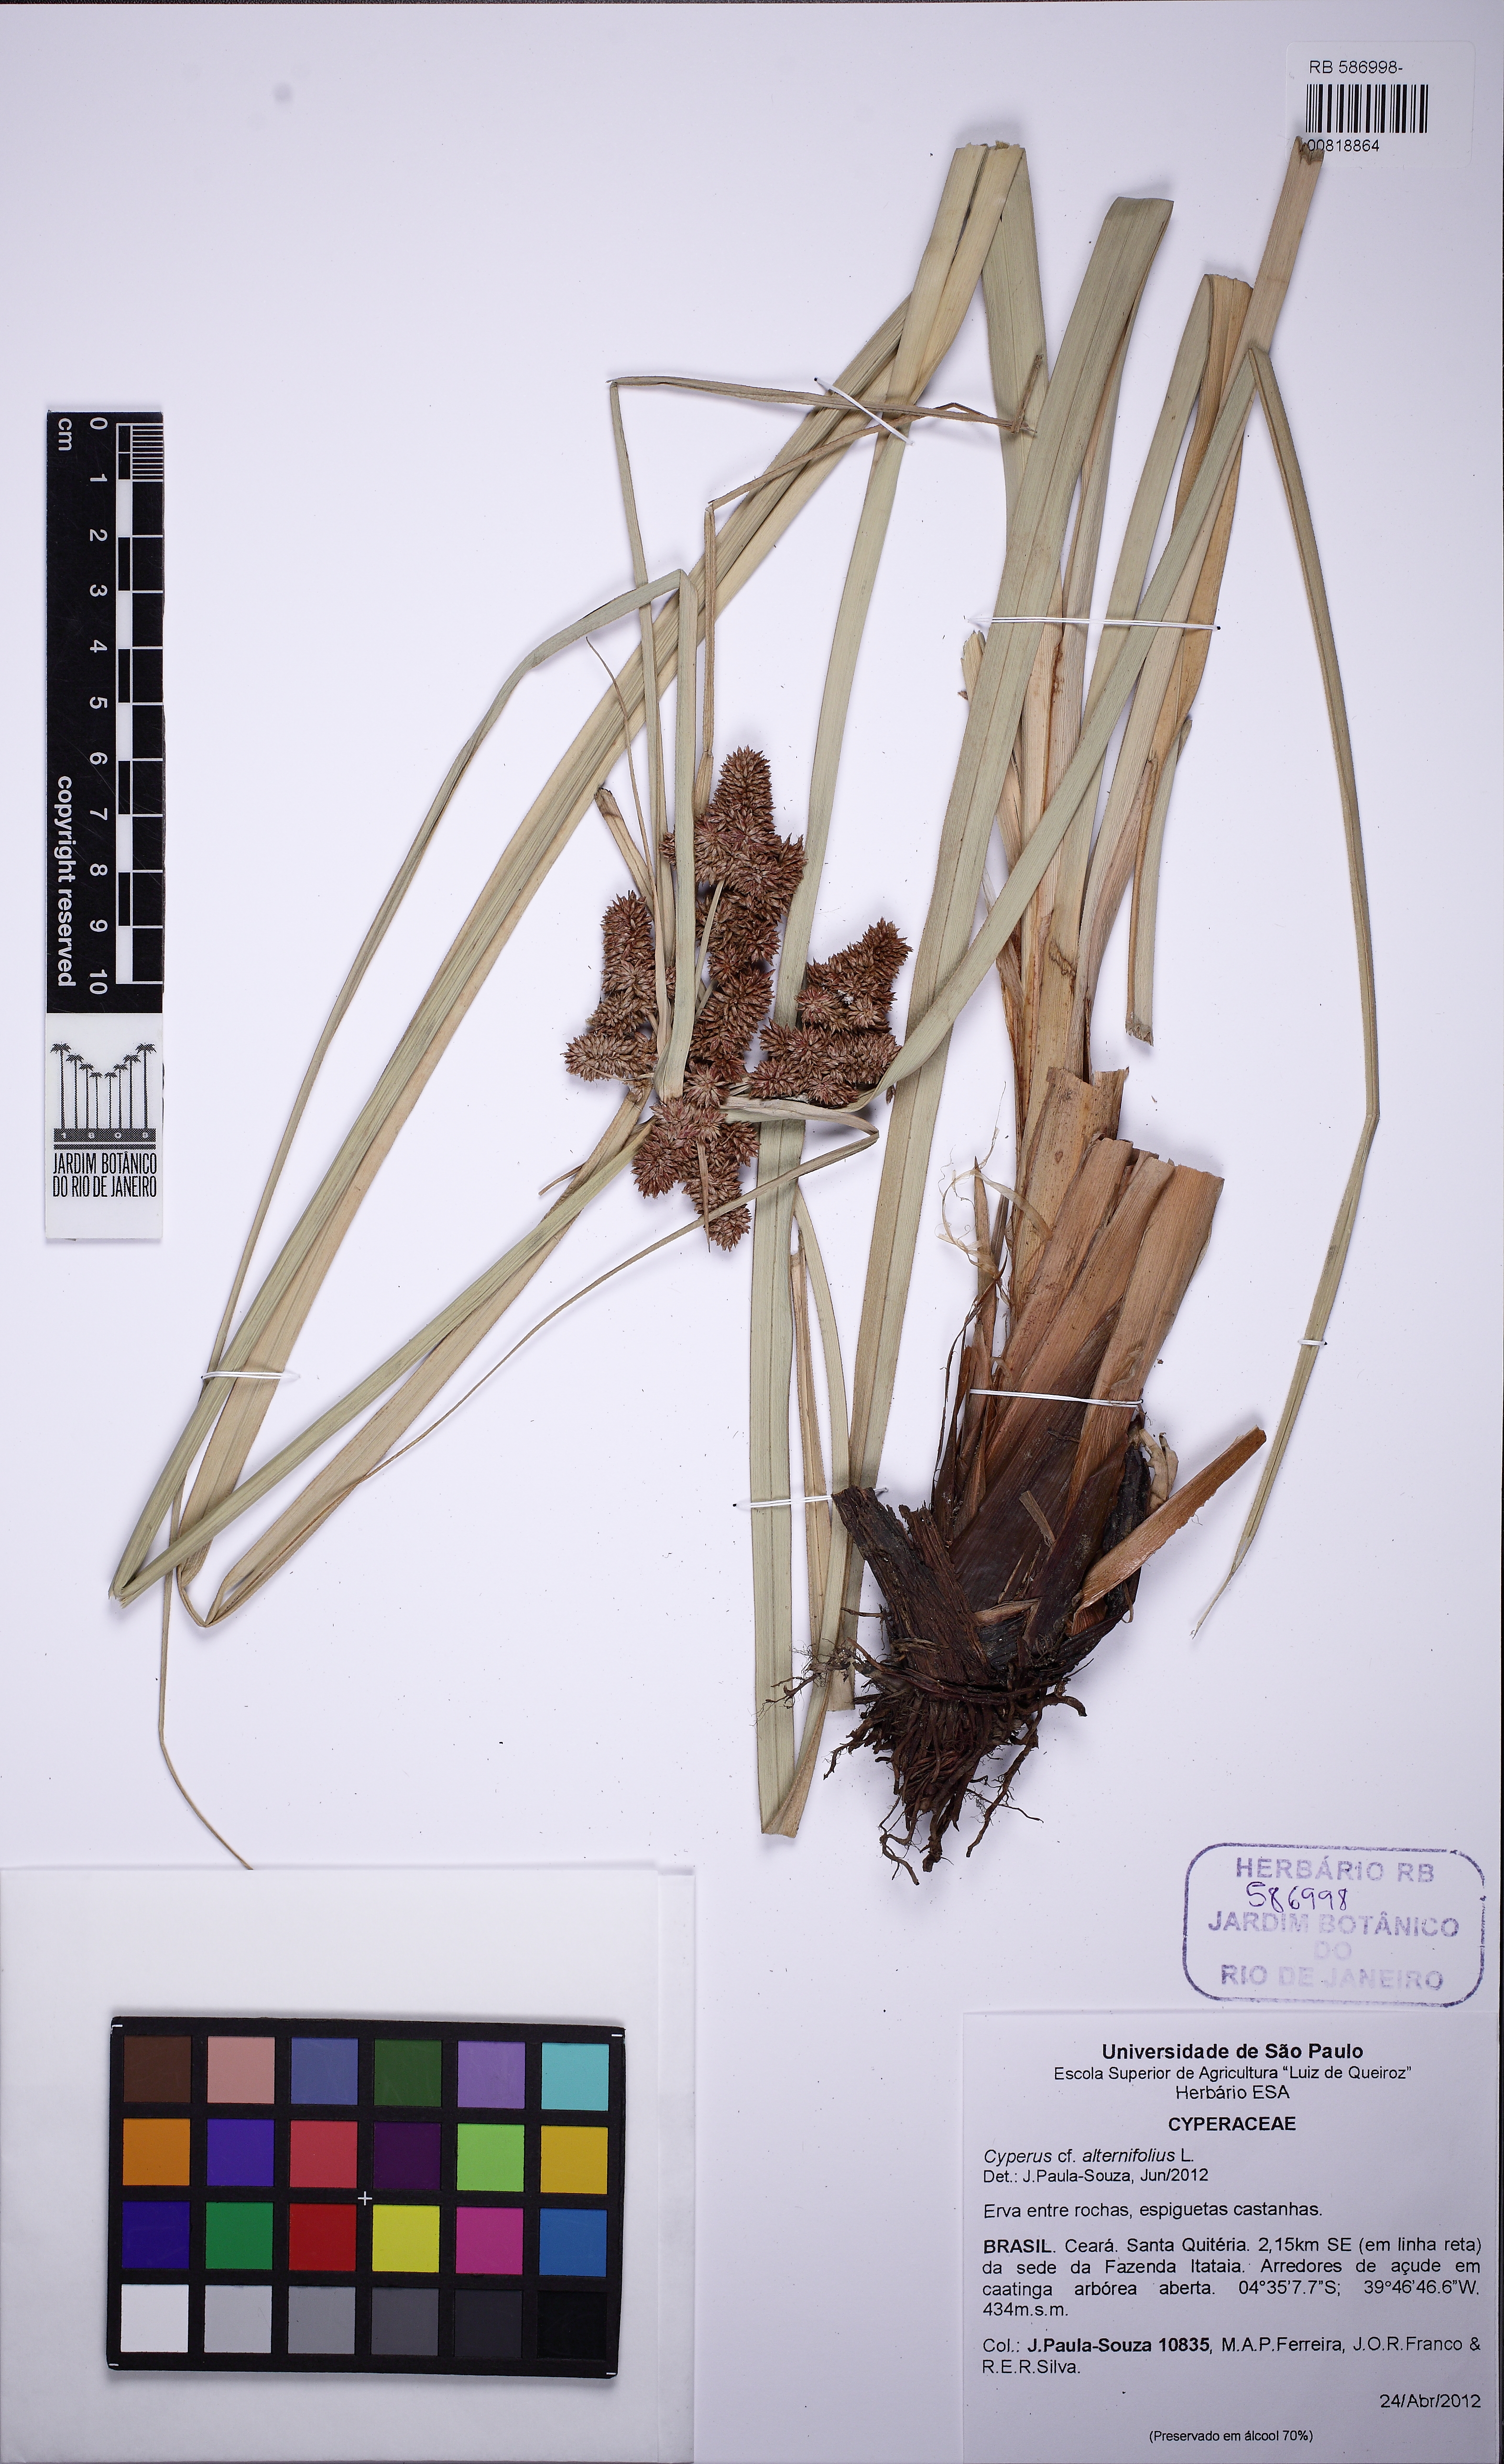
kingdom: Plantae
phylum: Tracheophyta
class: Liliopsida
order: Poales
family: Cyperaceae
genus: Cyperus
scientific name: Cyperus ligularis
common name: Swamp flat sedge
